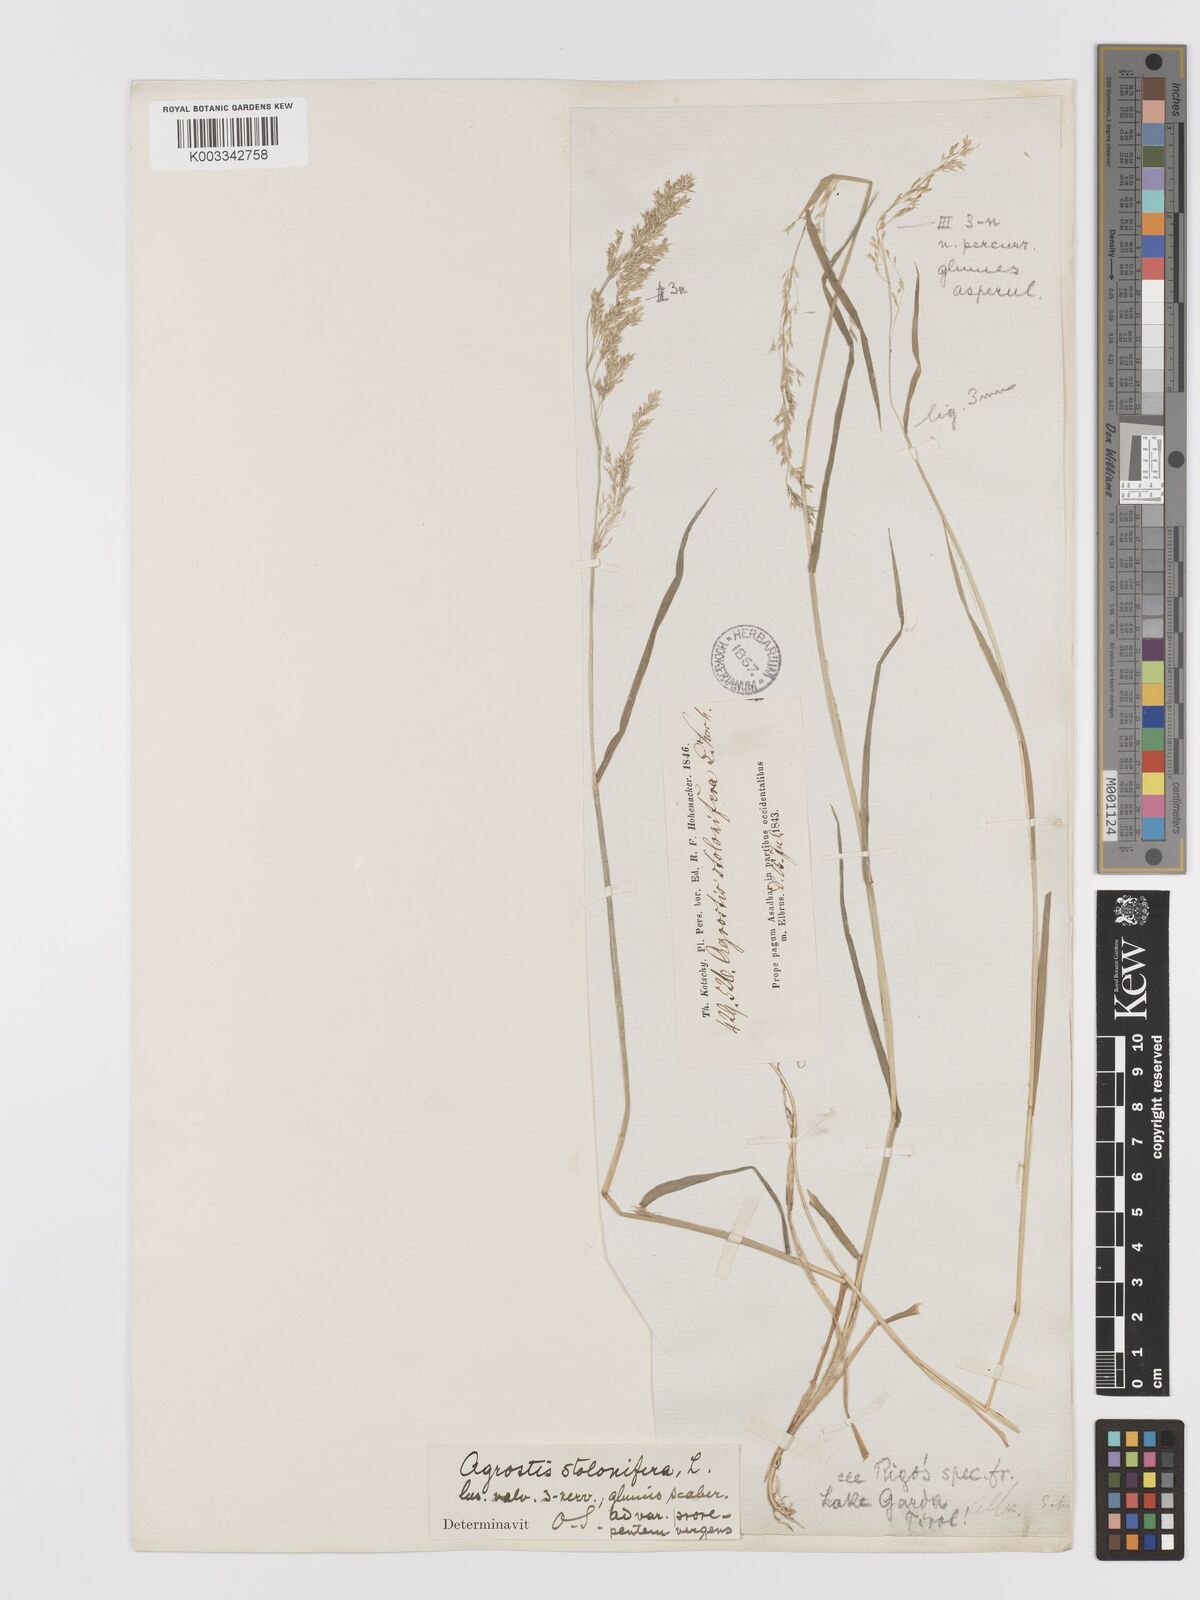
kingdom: Plantae
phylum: Tracheophyta
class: Liliopsida
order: Poales
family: Poaceae
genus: Agrostis
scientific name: Agrostis stolonifera
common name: Creeping bentgrass
